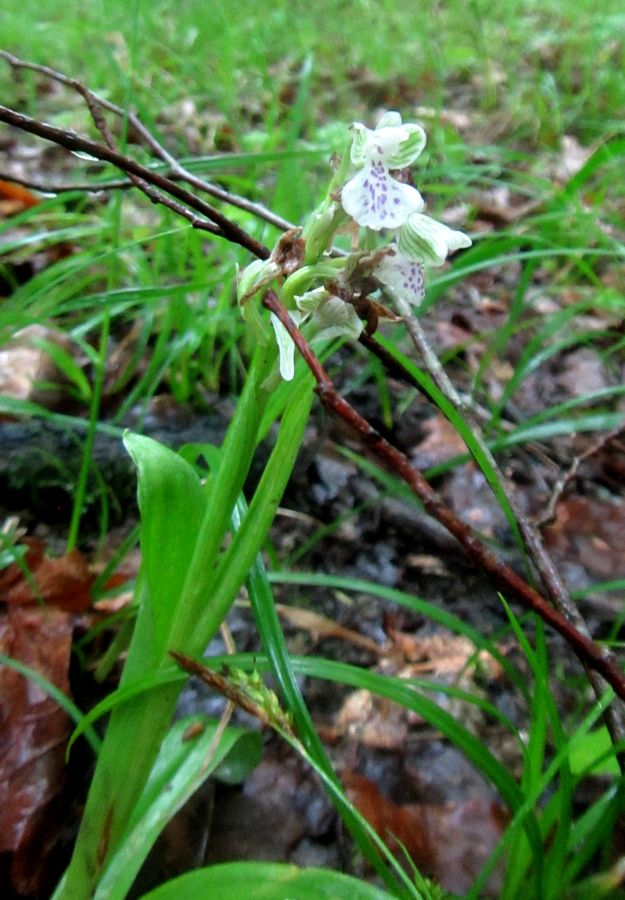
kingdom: Plantae
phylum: Tracheophyta
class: Liliopsida
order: Asparagales
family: Orchidaceae
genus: Anacamptis
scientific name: Anacamptis morio
